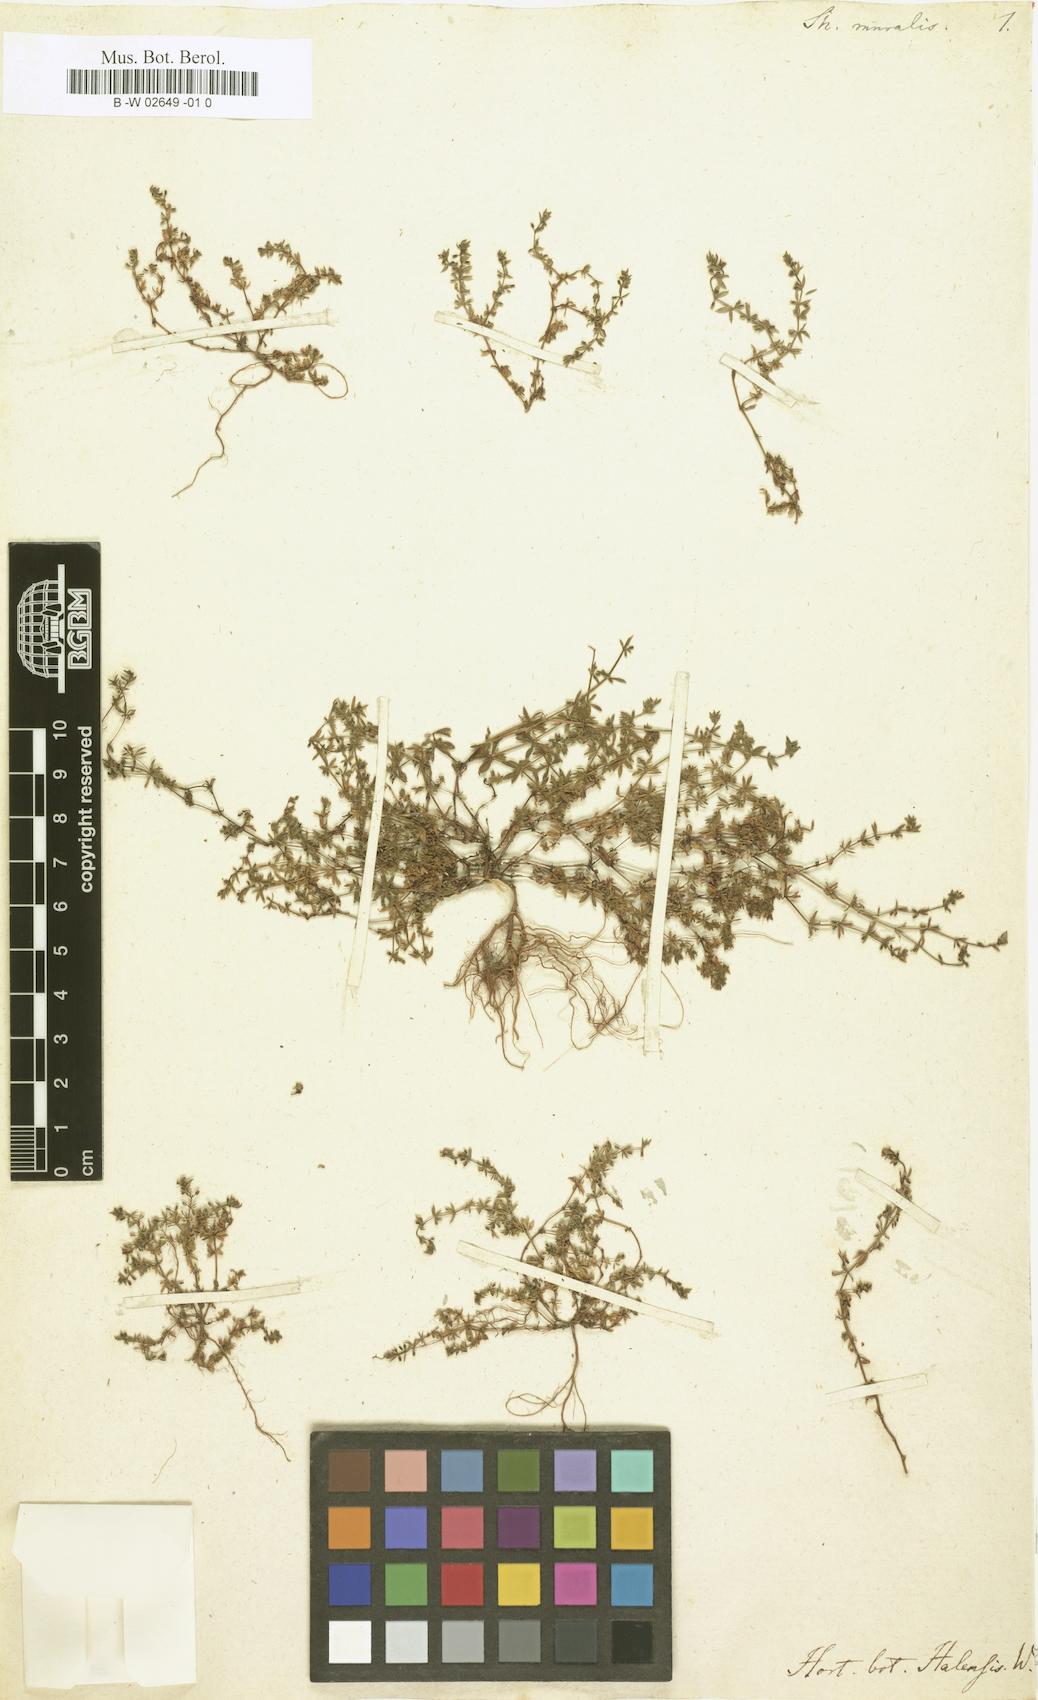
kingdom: Plantae
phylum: Tracheophyta
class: Magnoliopsida
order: Gentianales
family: Rubiaceae
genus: Sherardia
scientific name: Sherardia muralis
